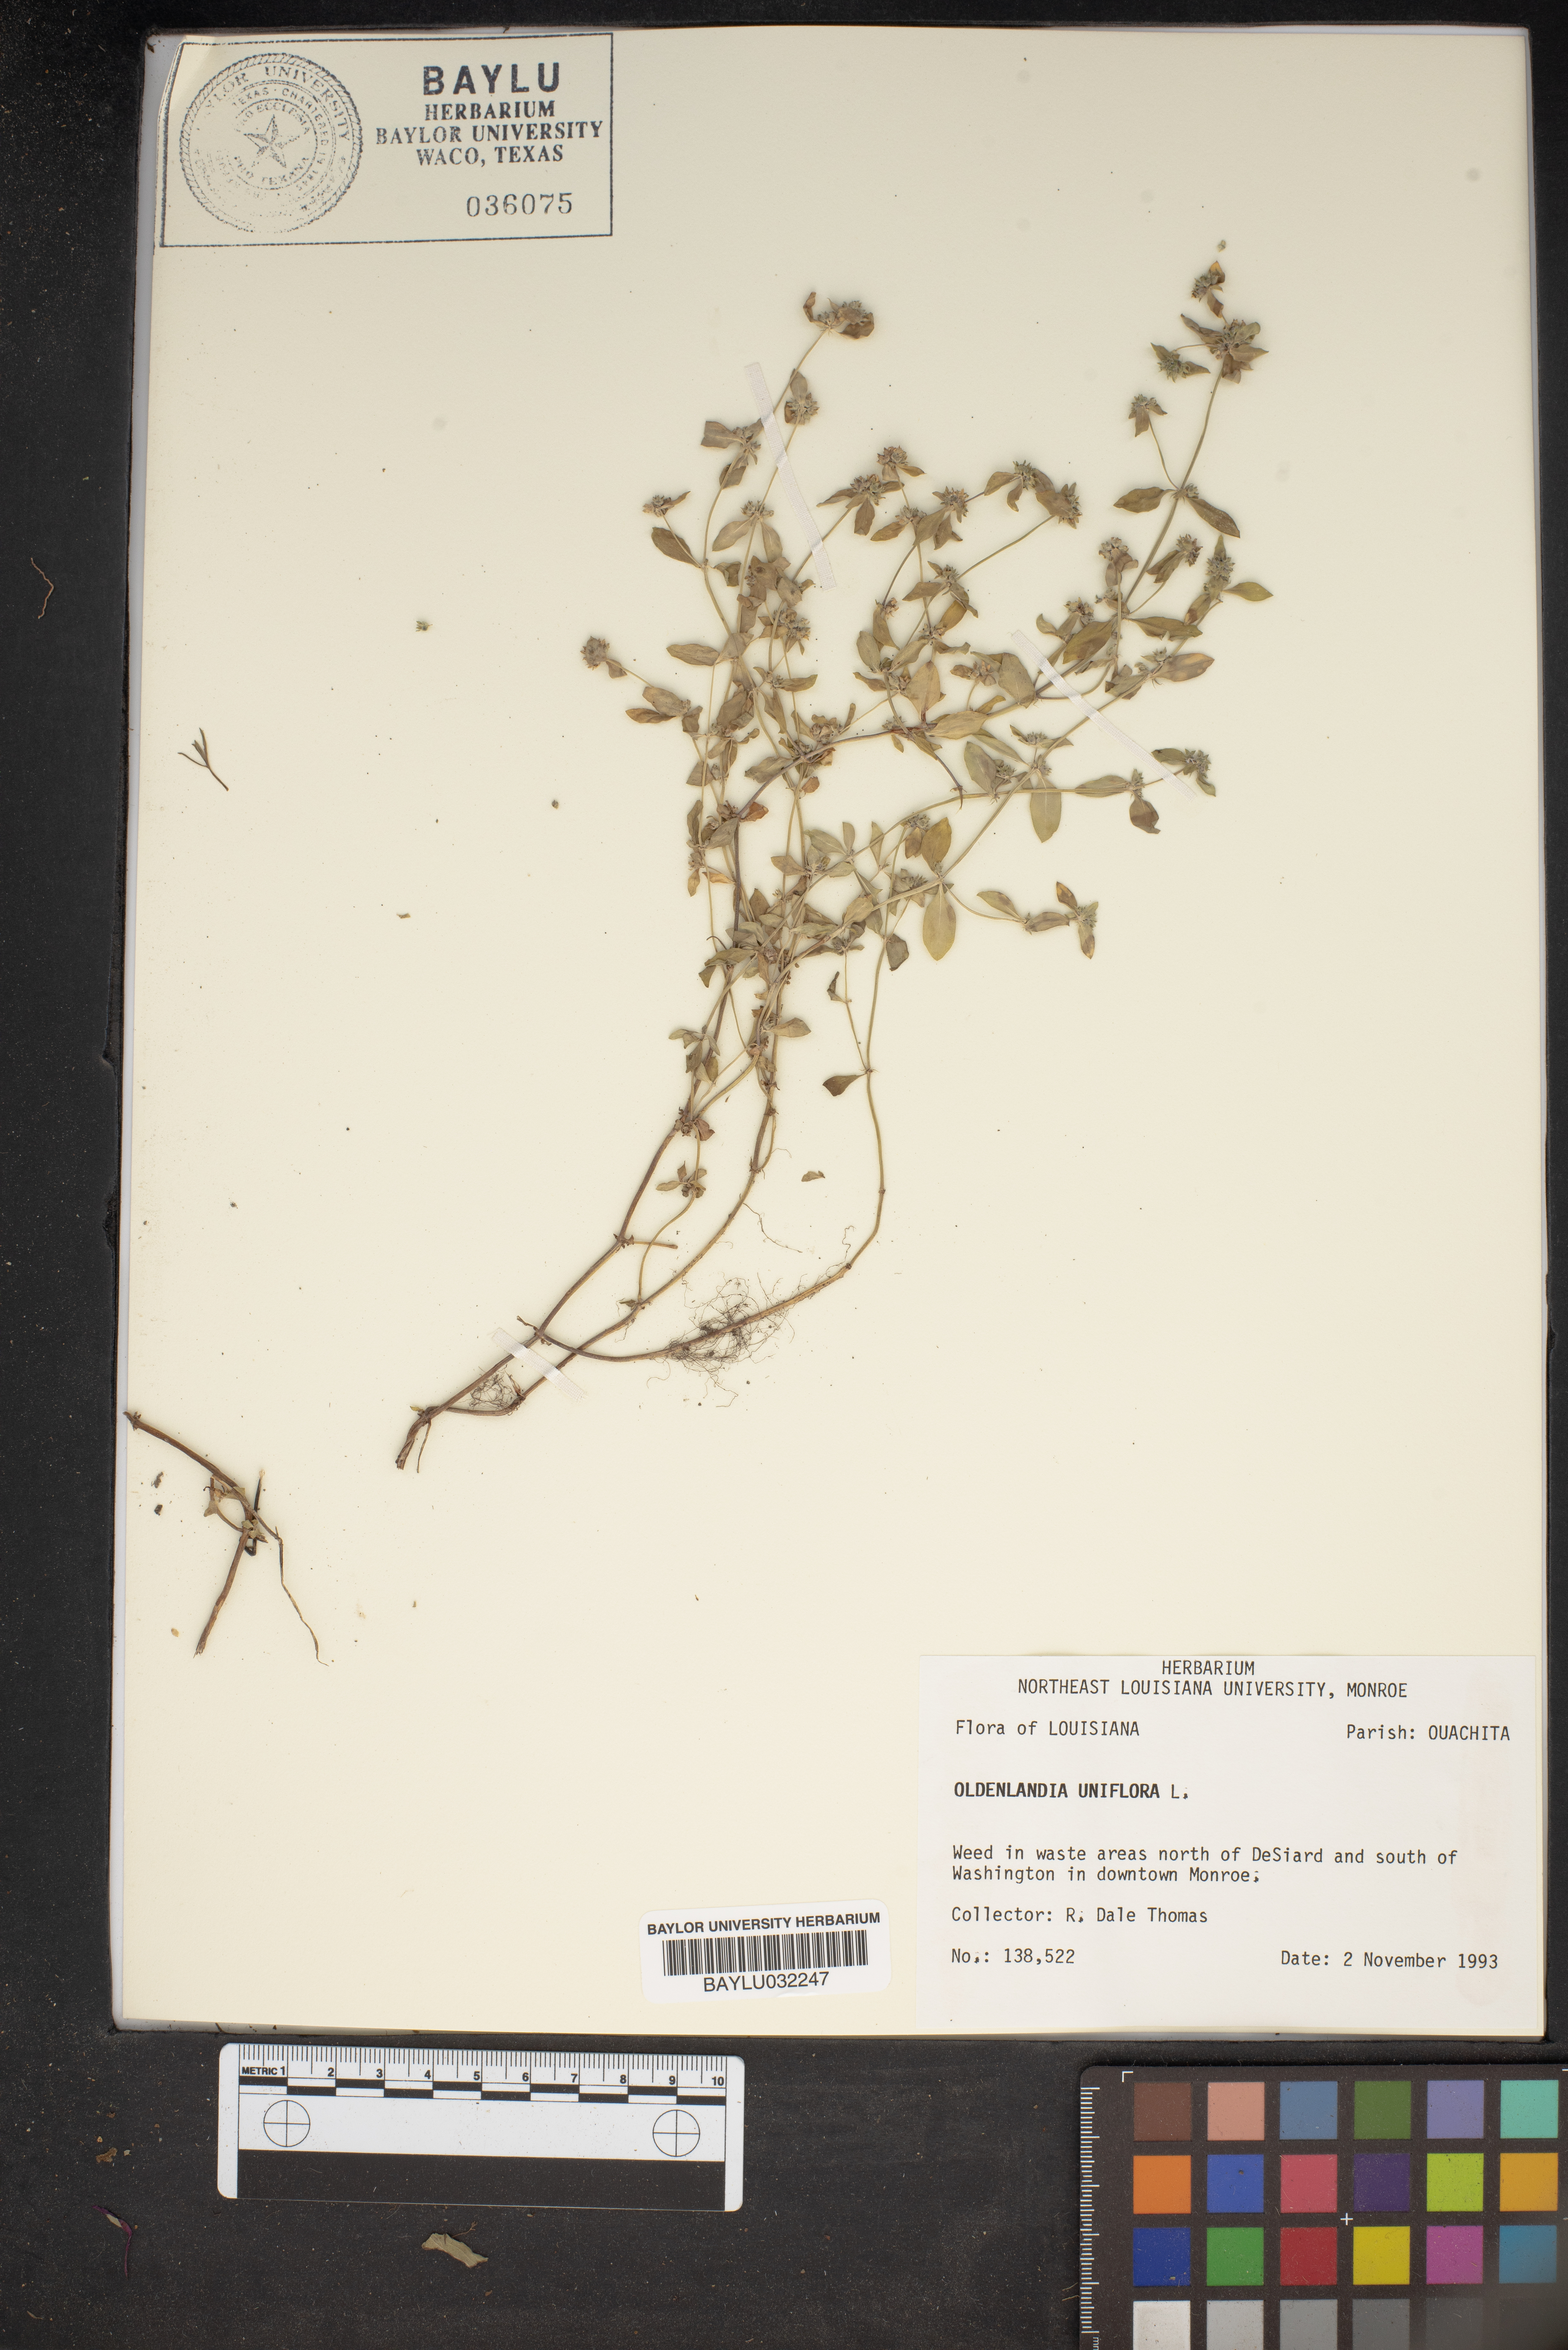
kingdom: Plantae
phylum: Tracheophyta
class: Magnoliopsida
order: Gentianales
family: Rubiaceae
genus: Edrastima
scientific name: Edrastima uniflora
